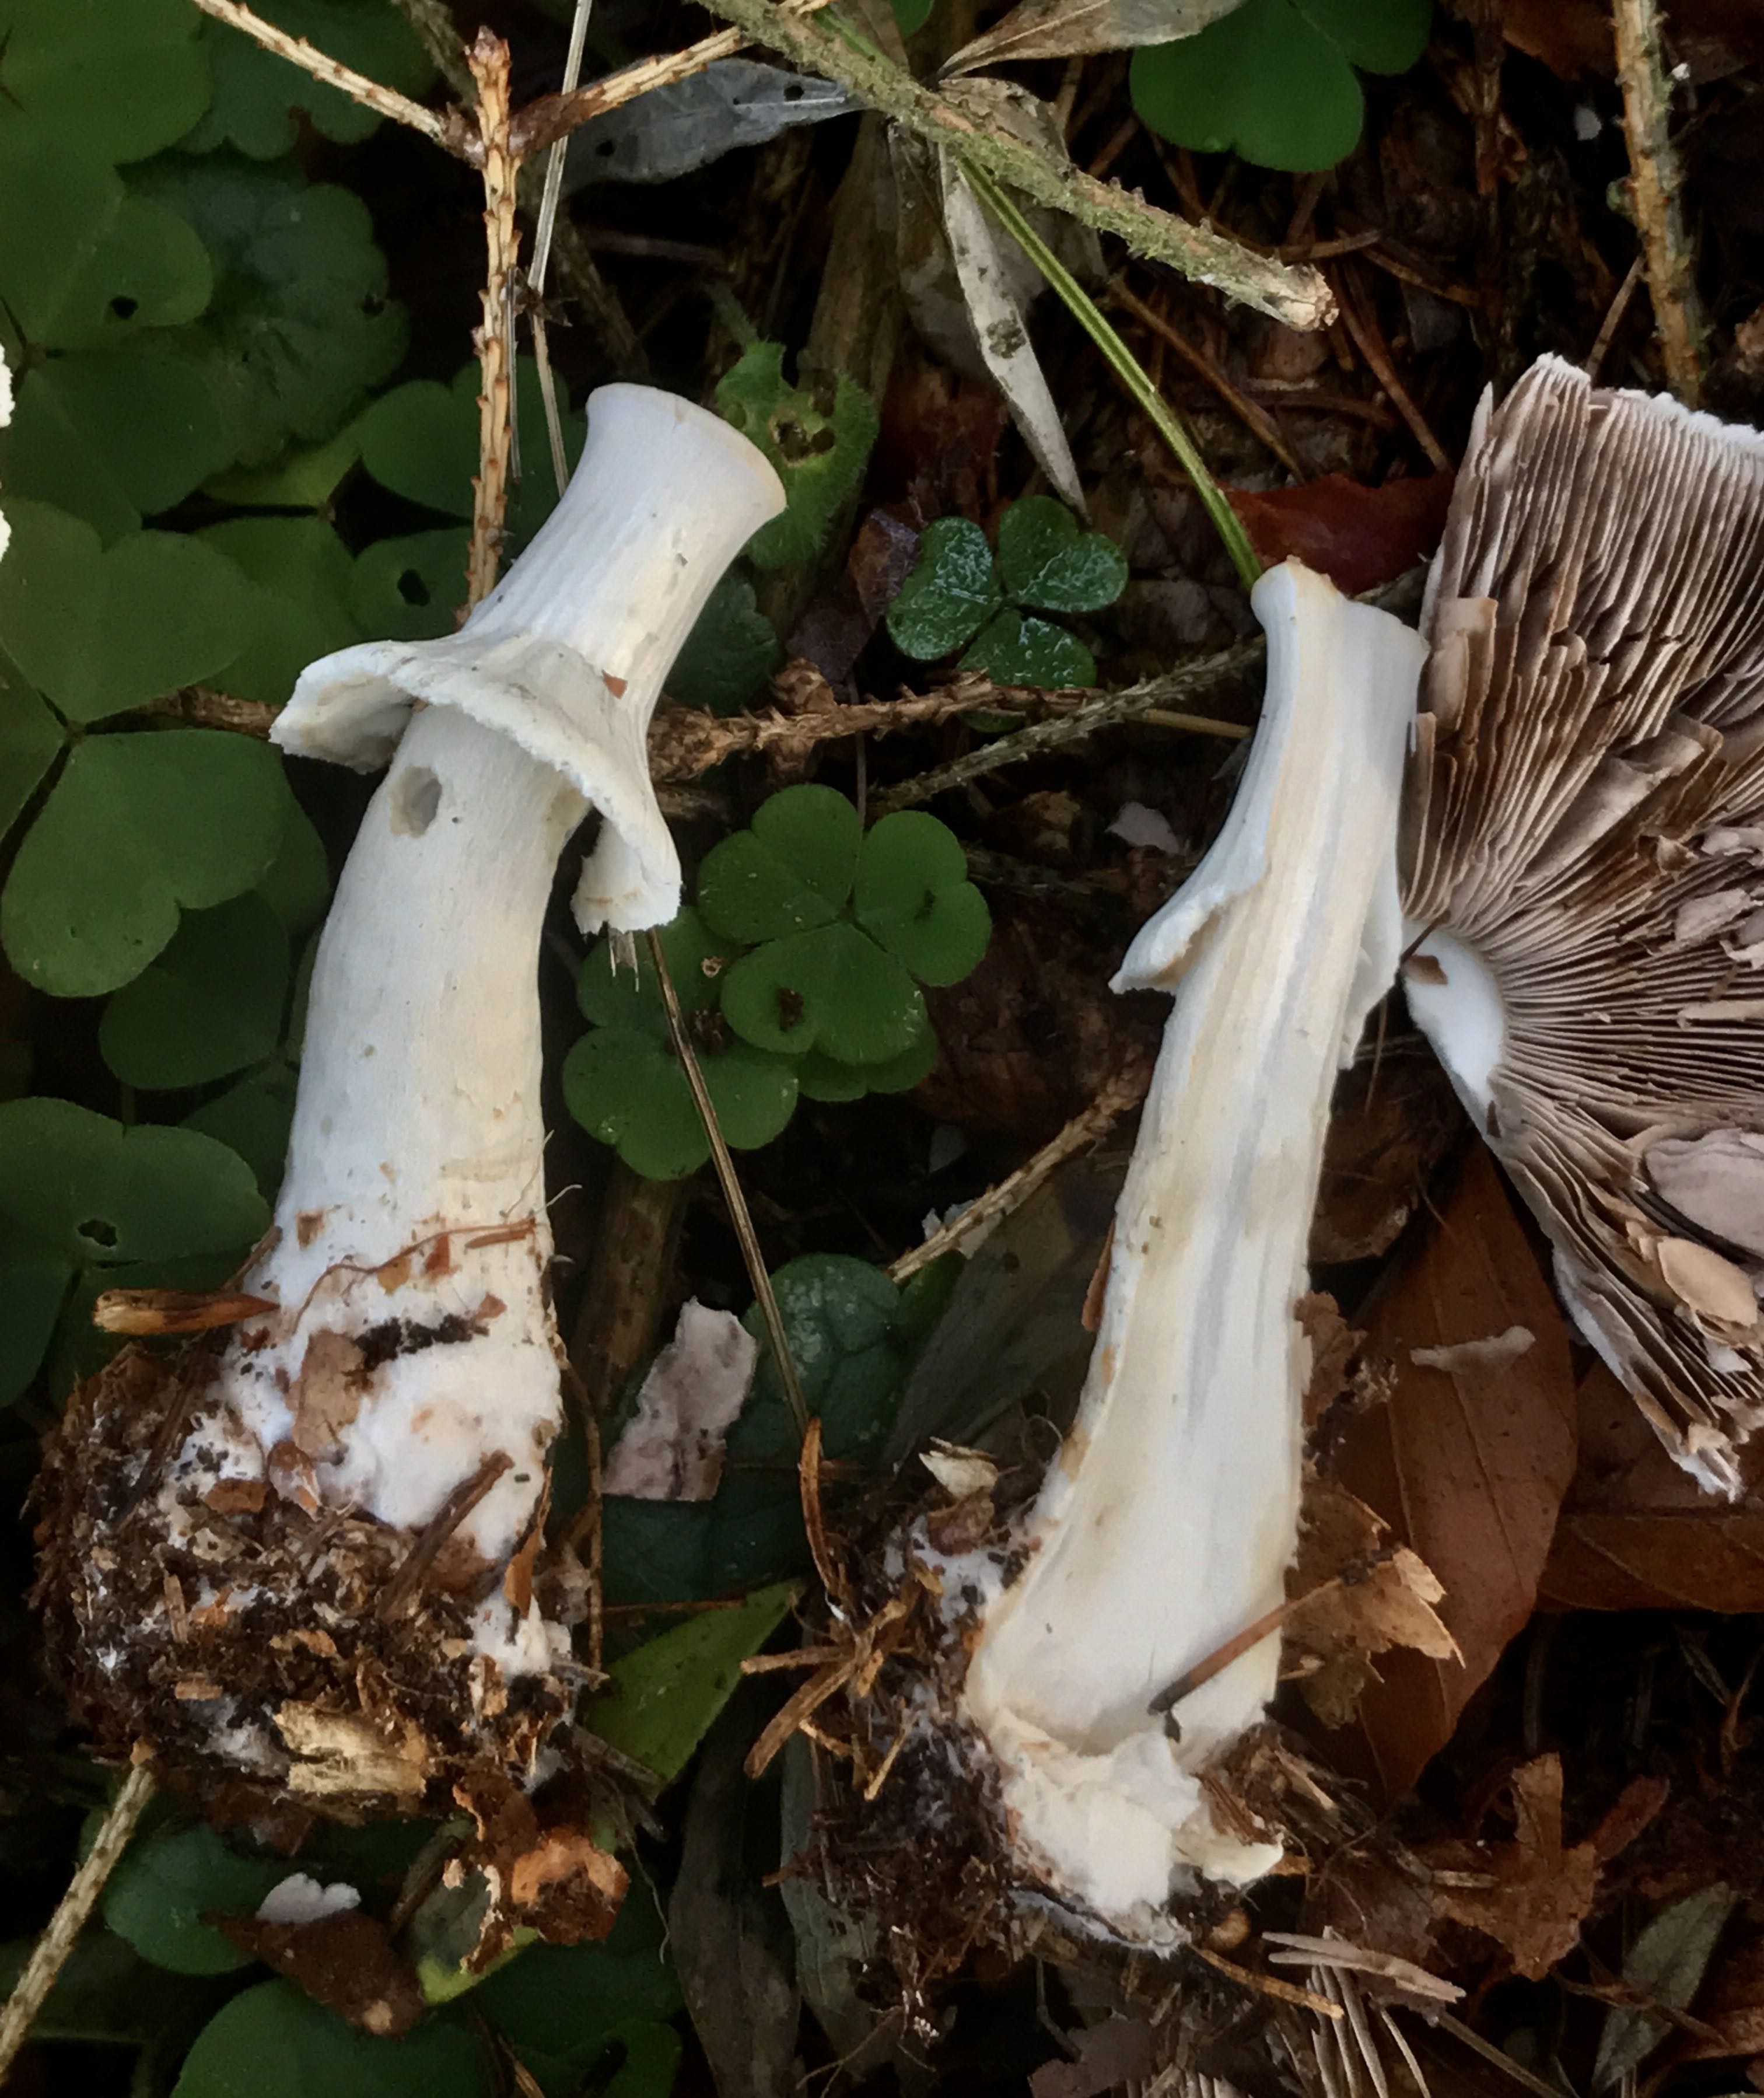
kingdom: Fungi
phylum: Basidiomycota
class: Agaricomycetes
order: Agaricales
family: Agaricaceae
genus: Agaricus
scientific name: Agaricus impudicus
